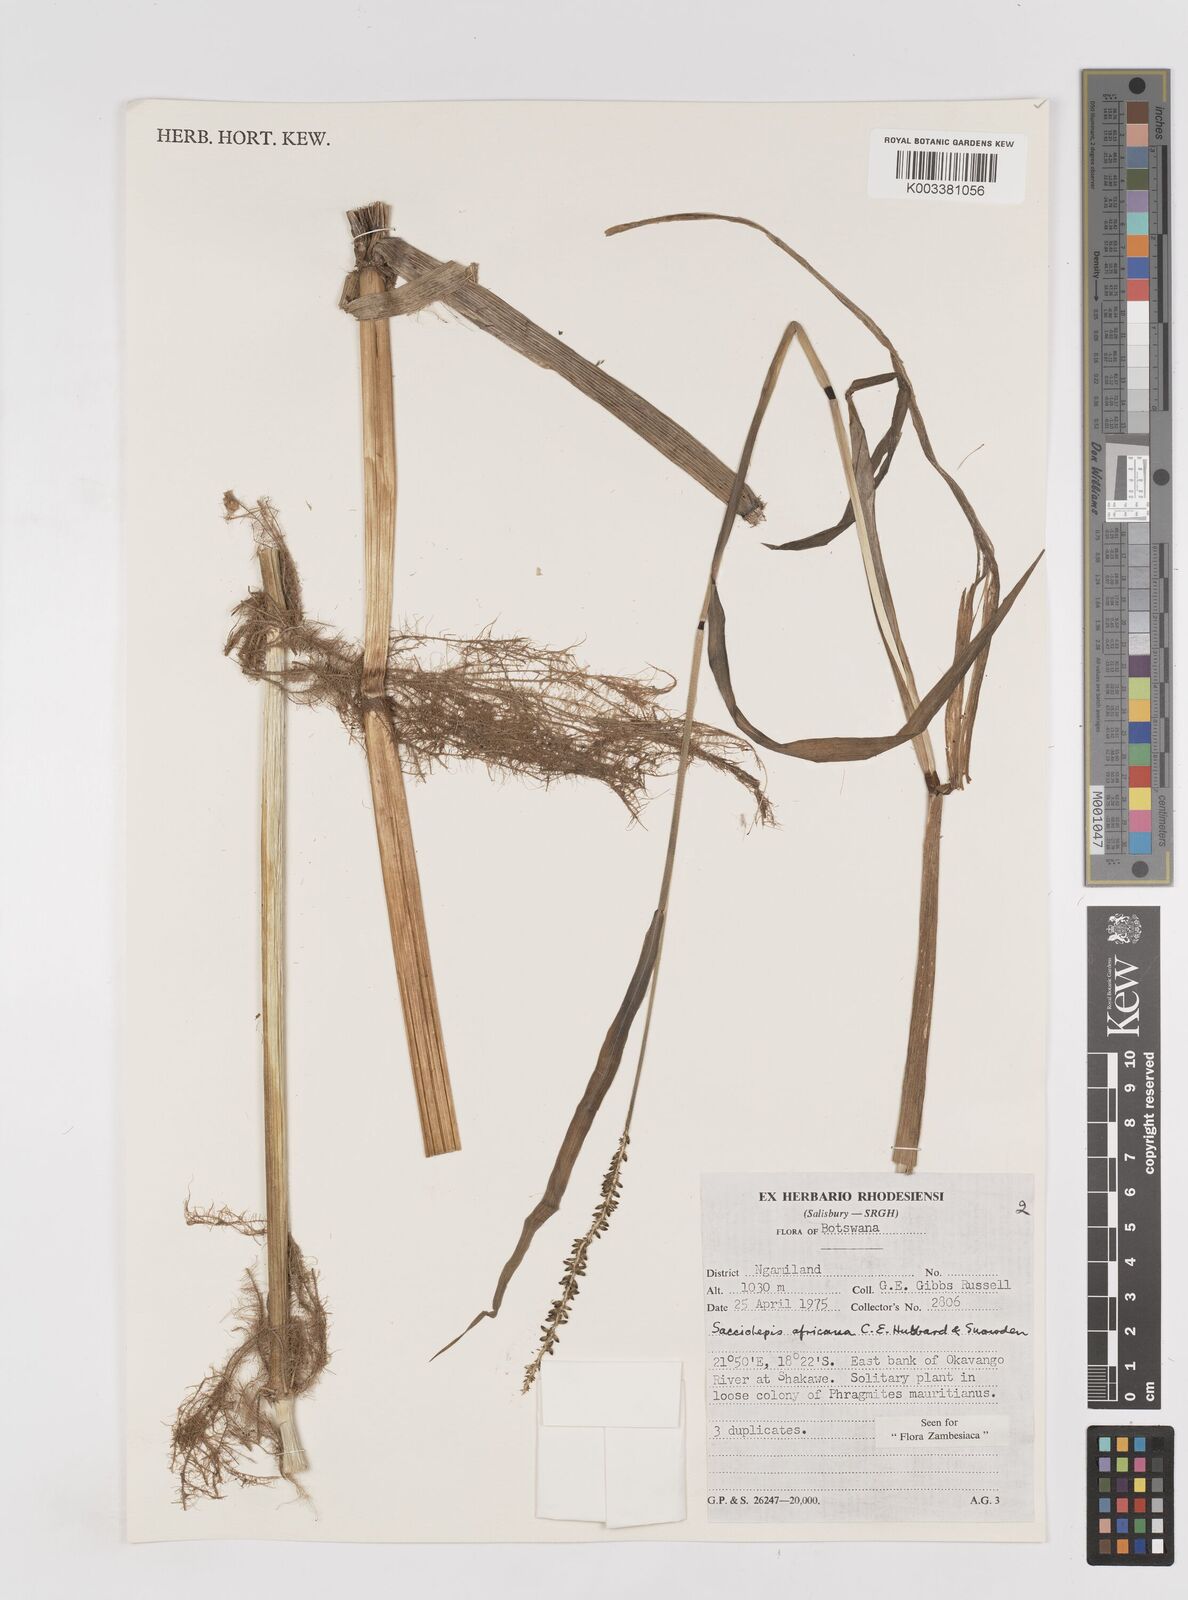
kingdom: Plantae
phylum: Tracheophyta
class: Liliopsida
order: Poales
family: Poaceae
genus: Sacciolepis
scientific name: Sacciolepis africana
